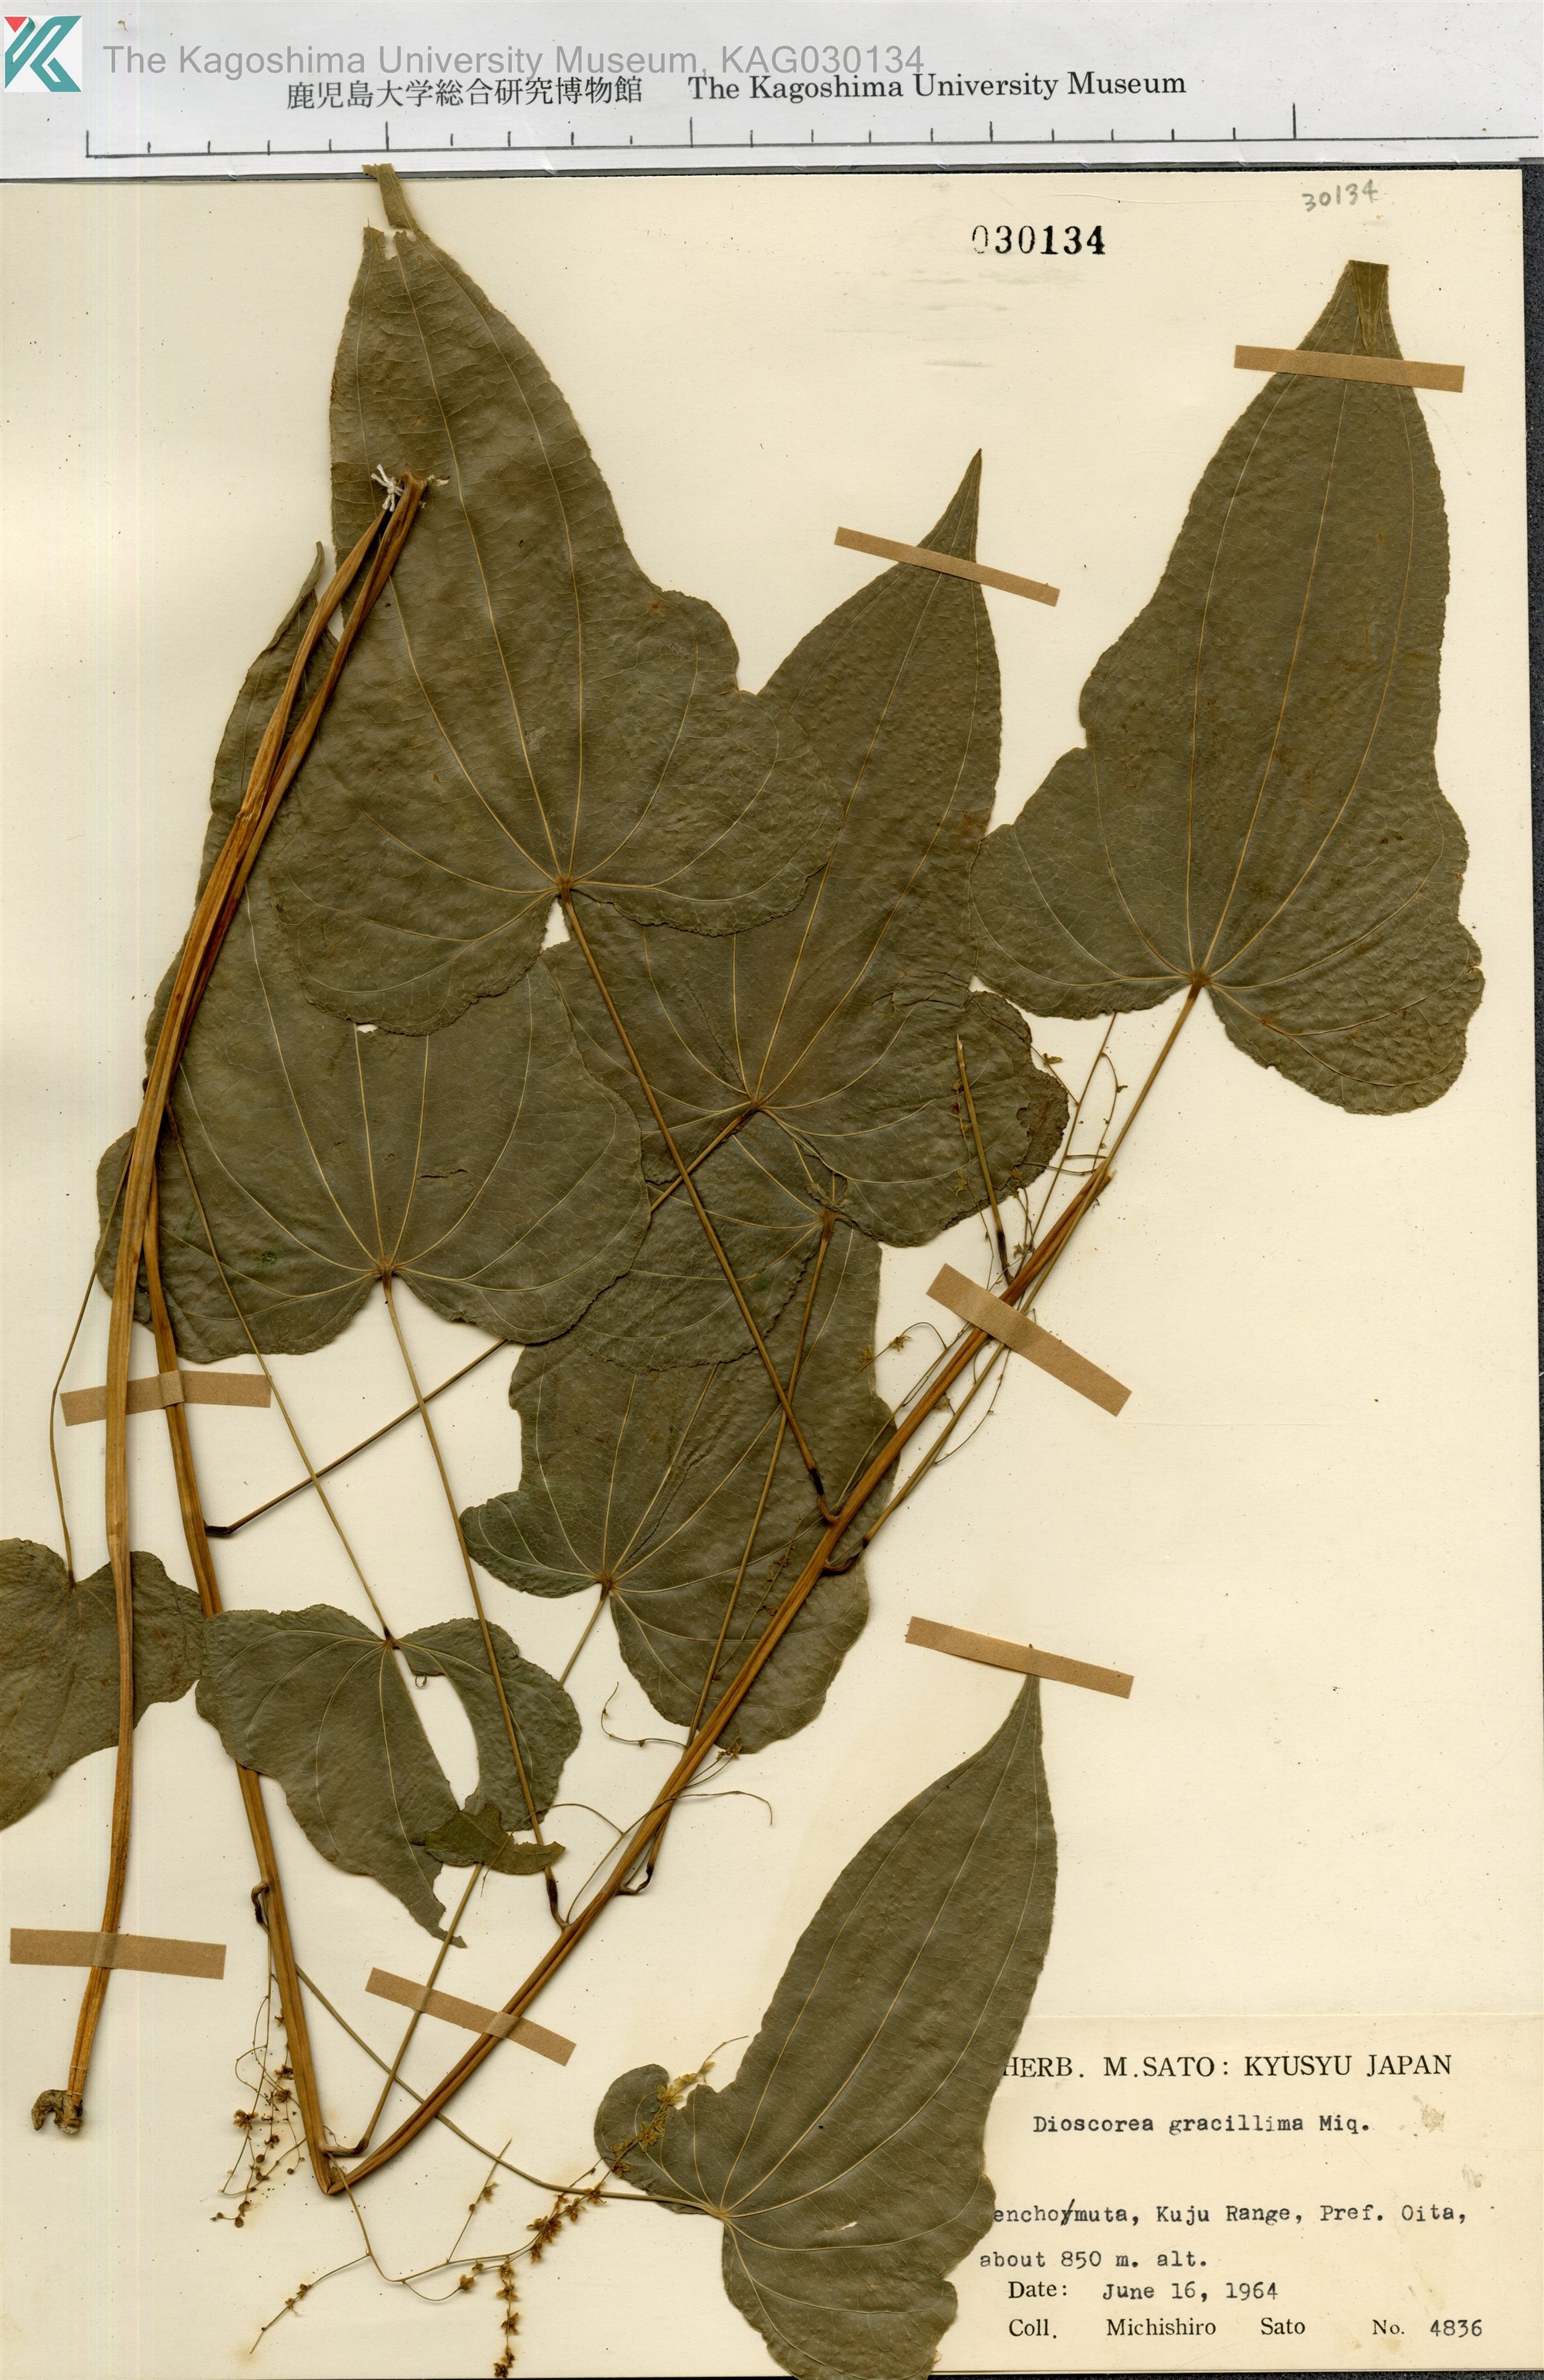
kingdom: Plantae
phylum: Tracheophyta
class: Liliopsida
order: Dioscoreales
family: Dioscoreaceae
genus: Dioscorea
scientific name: Dioscorea gracillima
